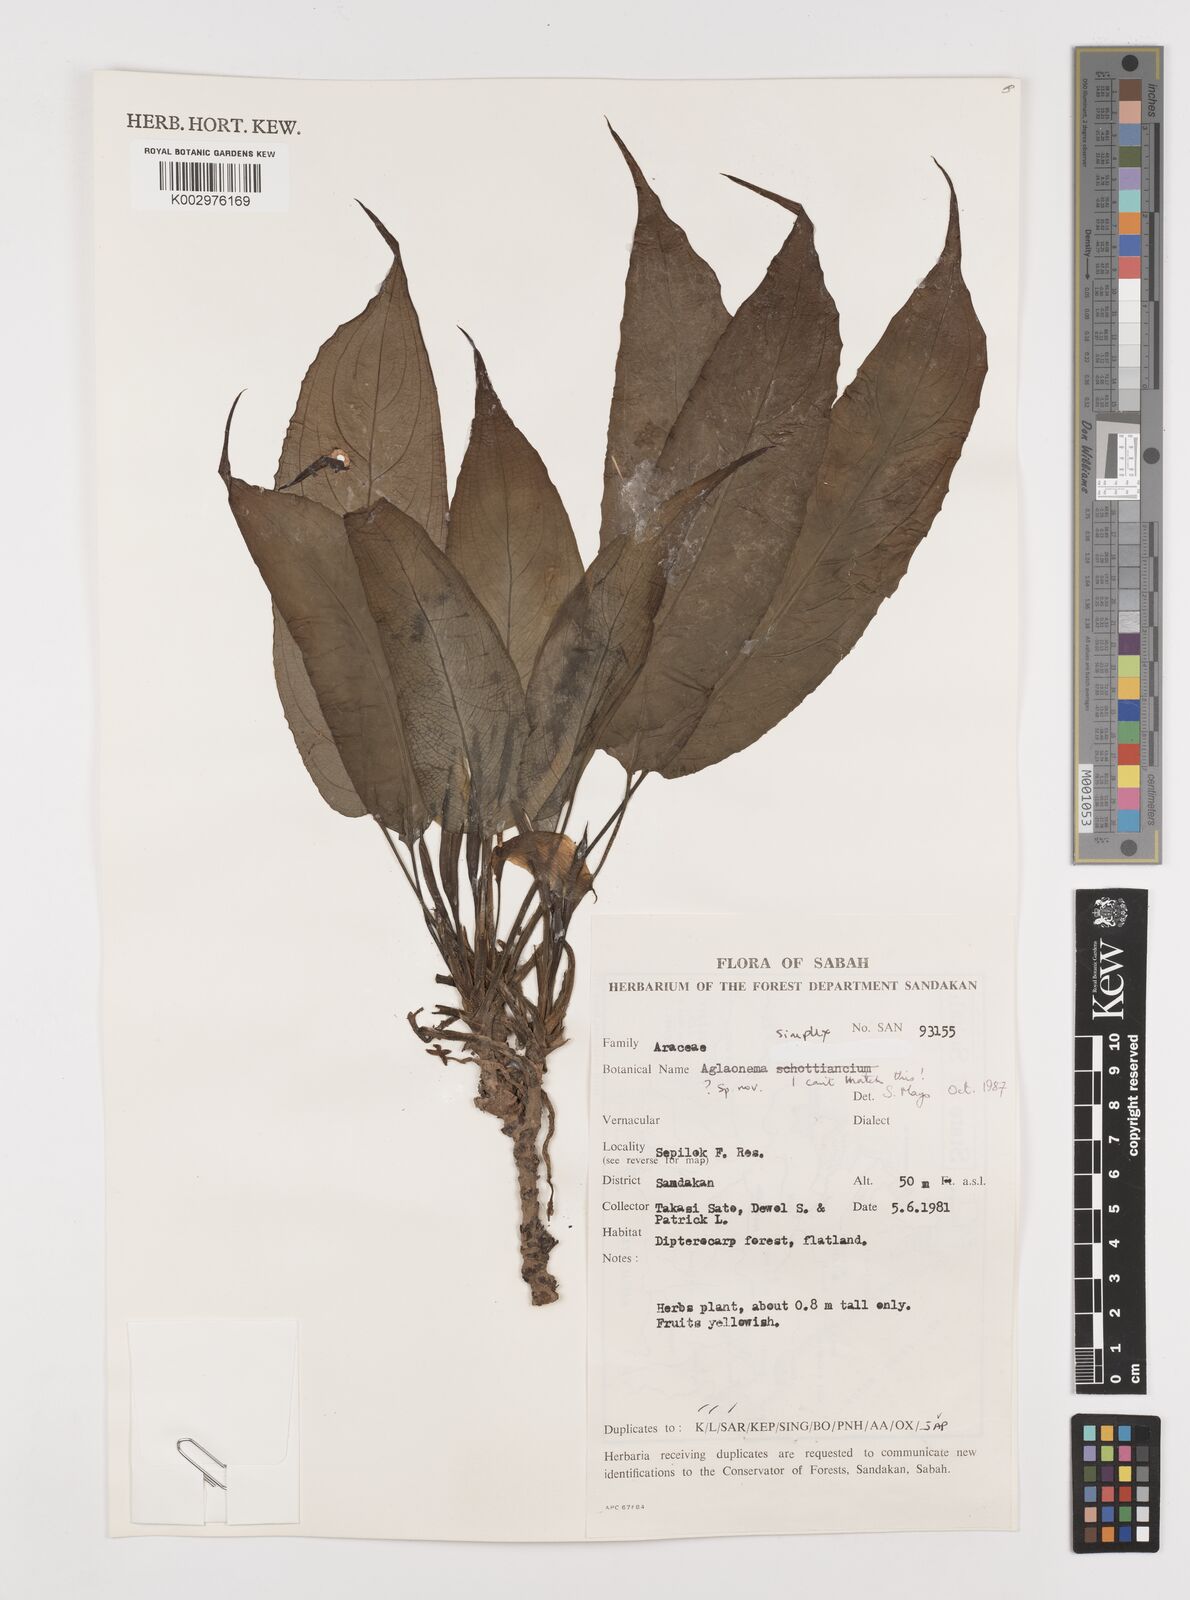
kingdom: Plantae
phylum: Tracheophyta
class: Liliopsida
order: Alismatales
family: Araceae
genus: Aglaonema
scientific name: Aglaonema simplex
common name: Malayan-sword
